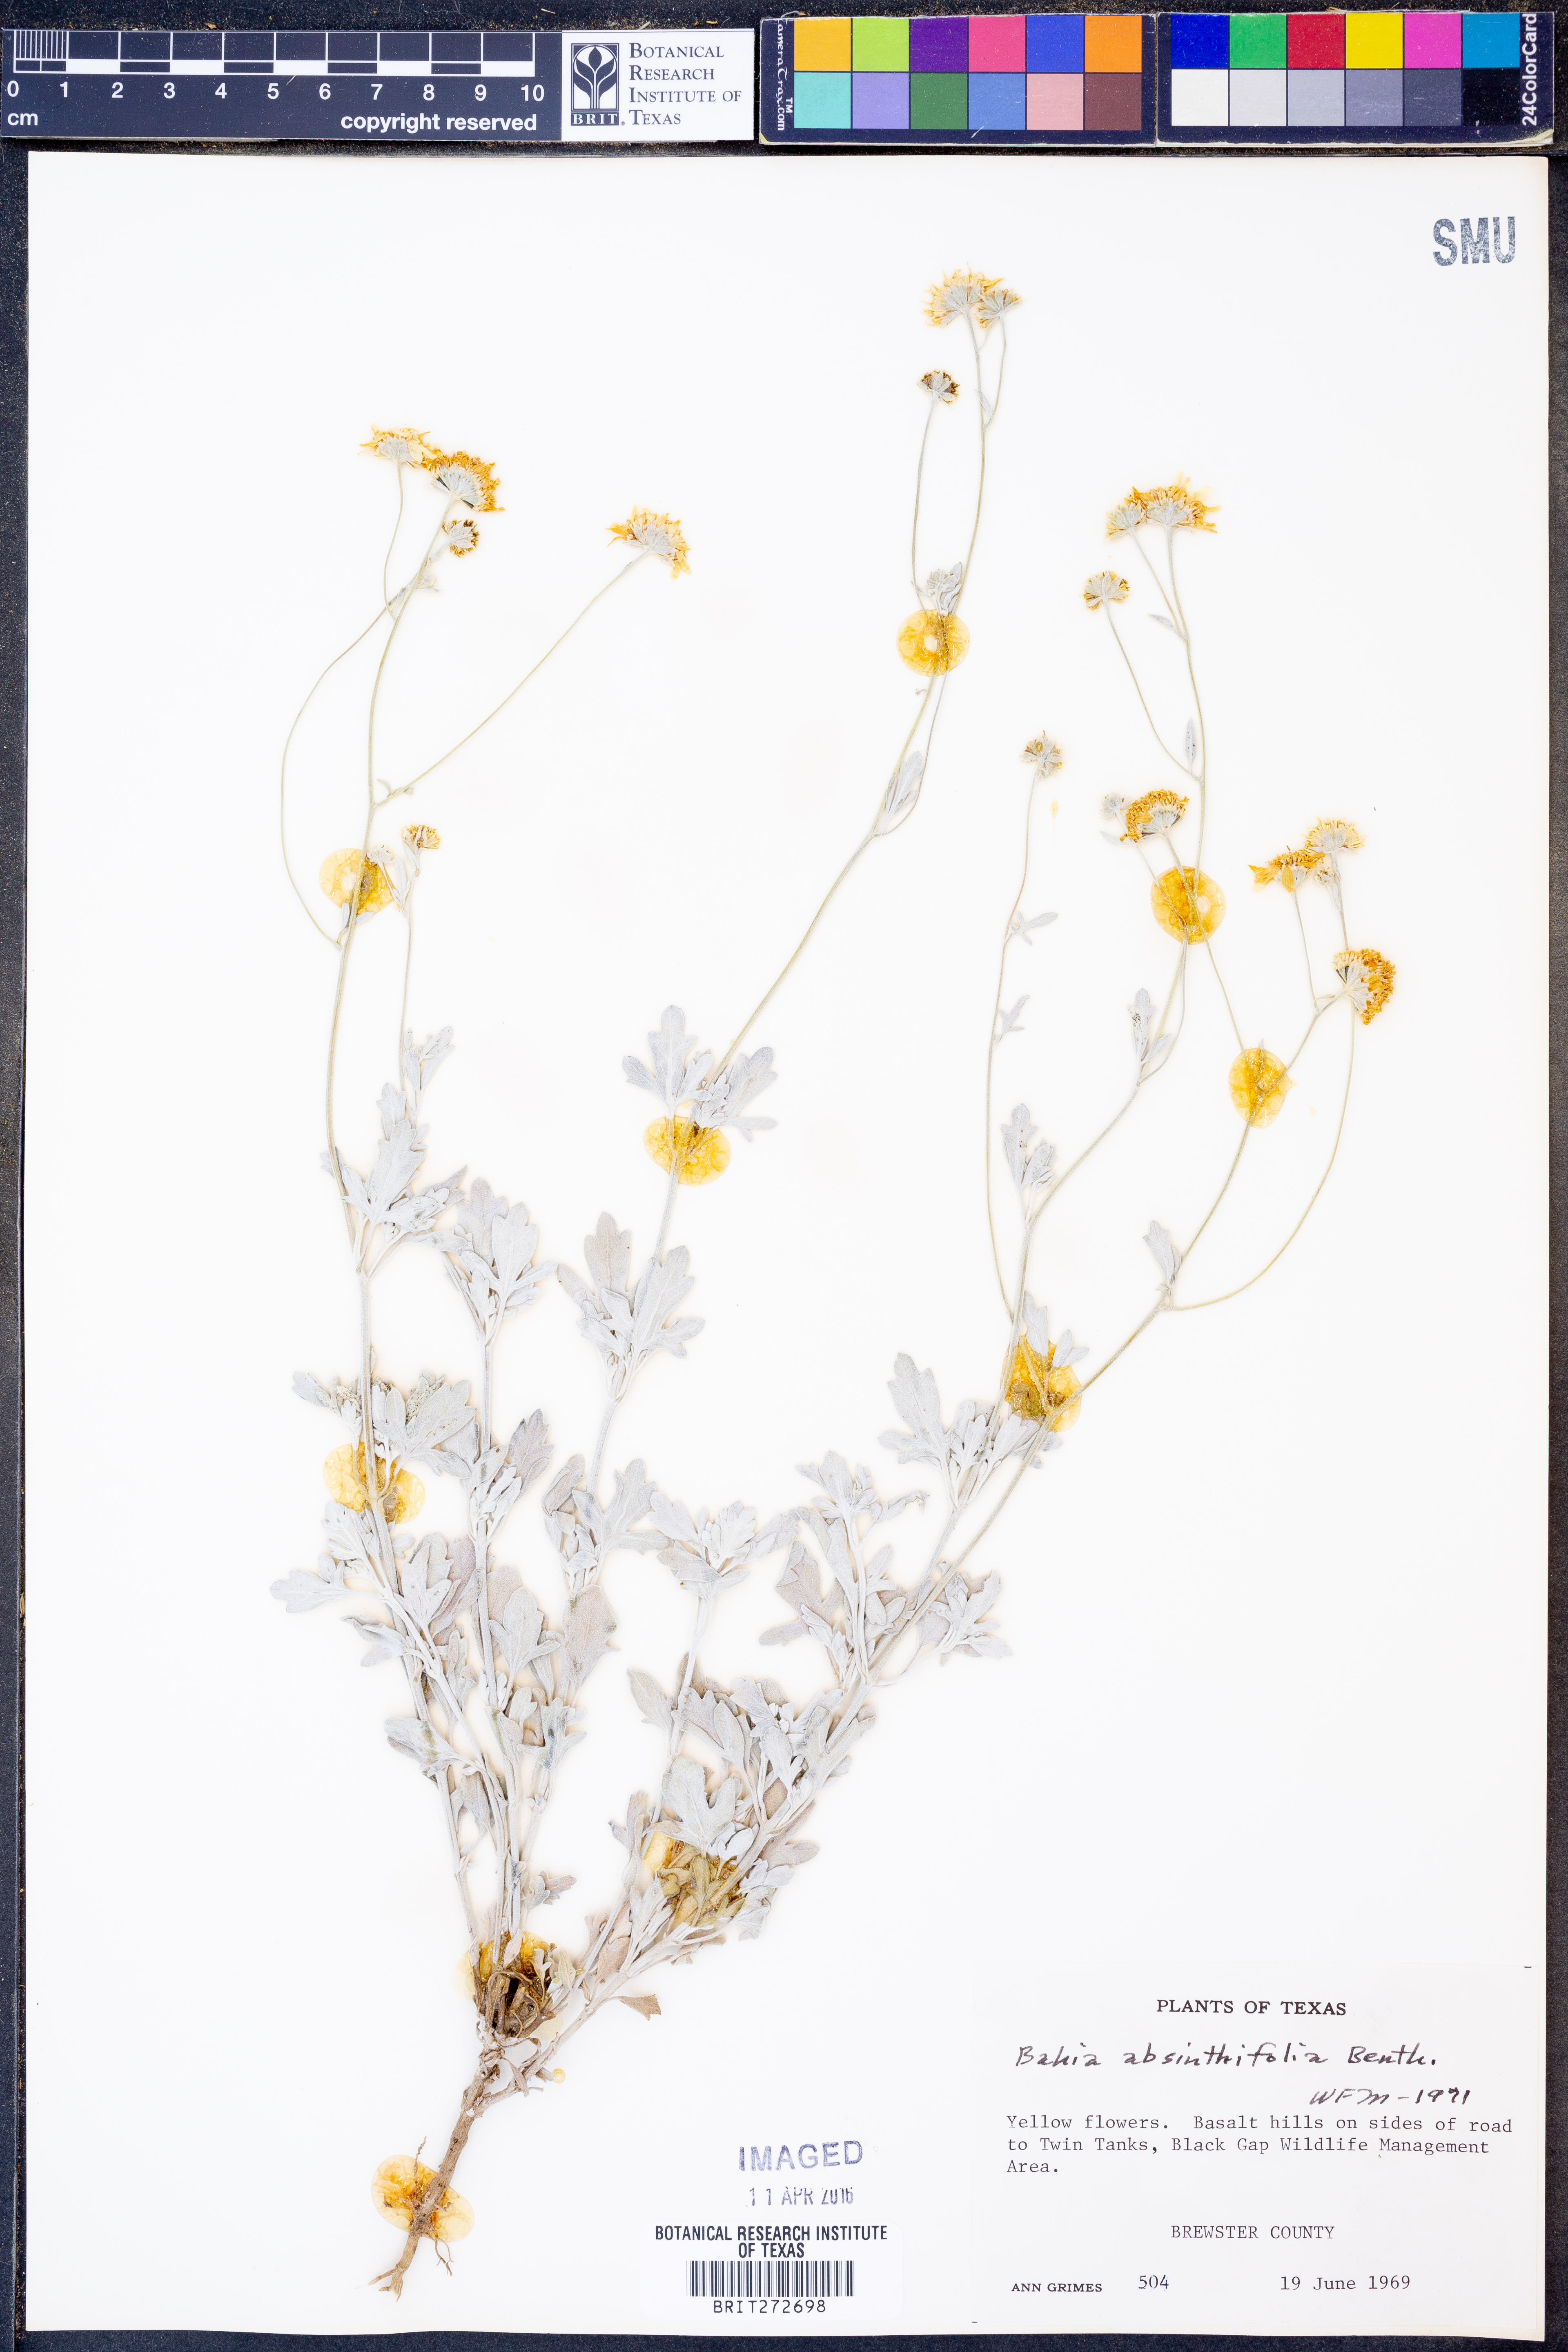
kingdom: Plantae
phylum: Tracheophyta
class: Magnoliopsida
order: Asterales
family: Asteraceae
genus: Picradeniopsis
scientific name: Picradeniopsis absinthifolia
